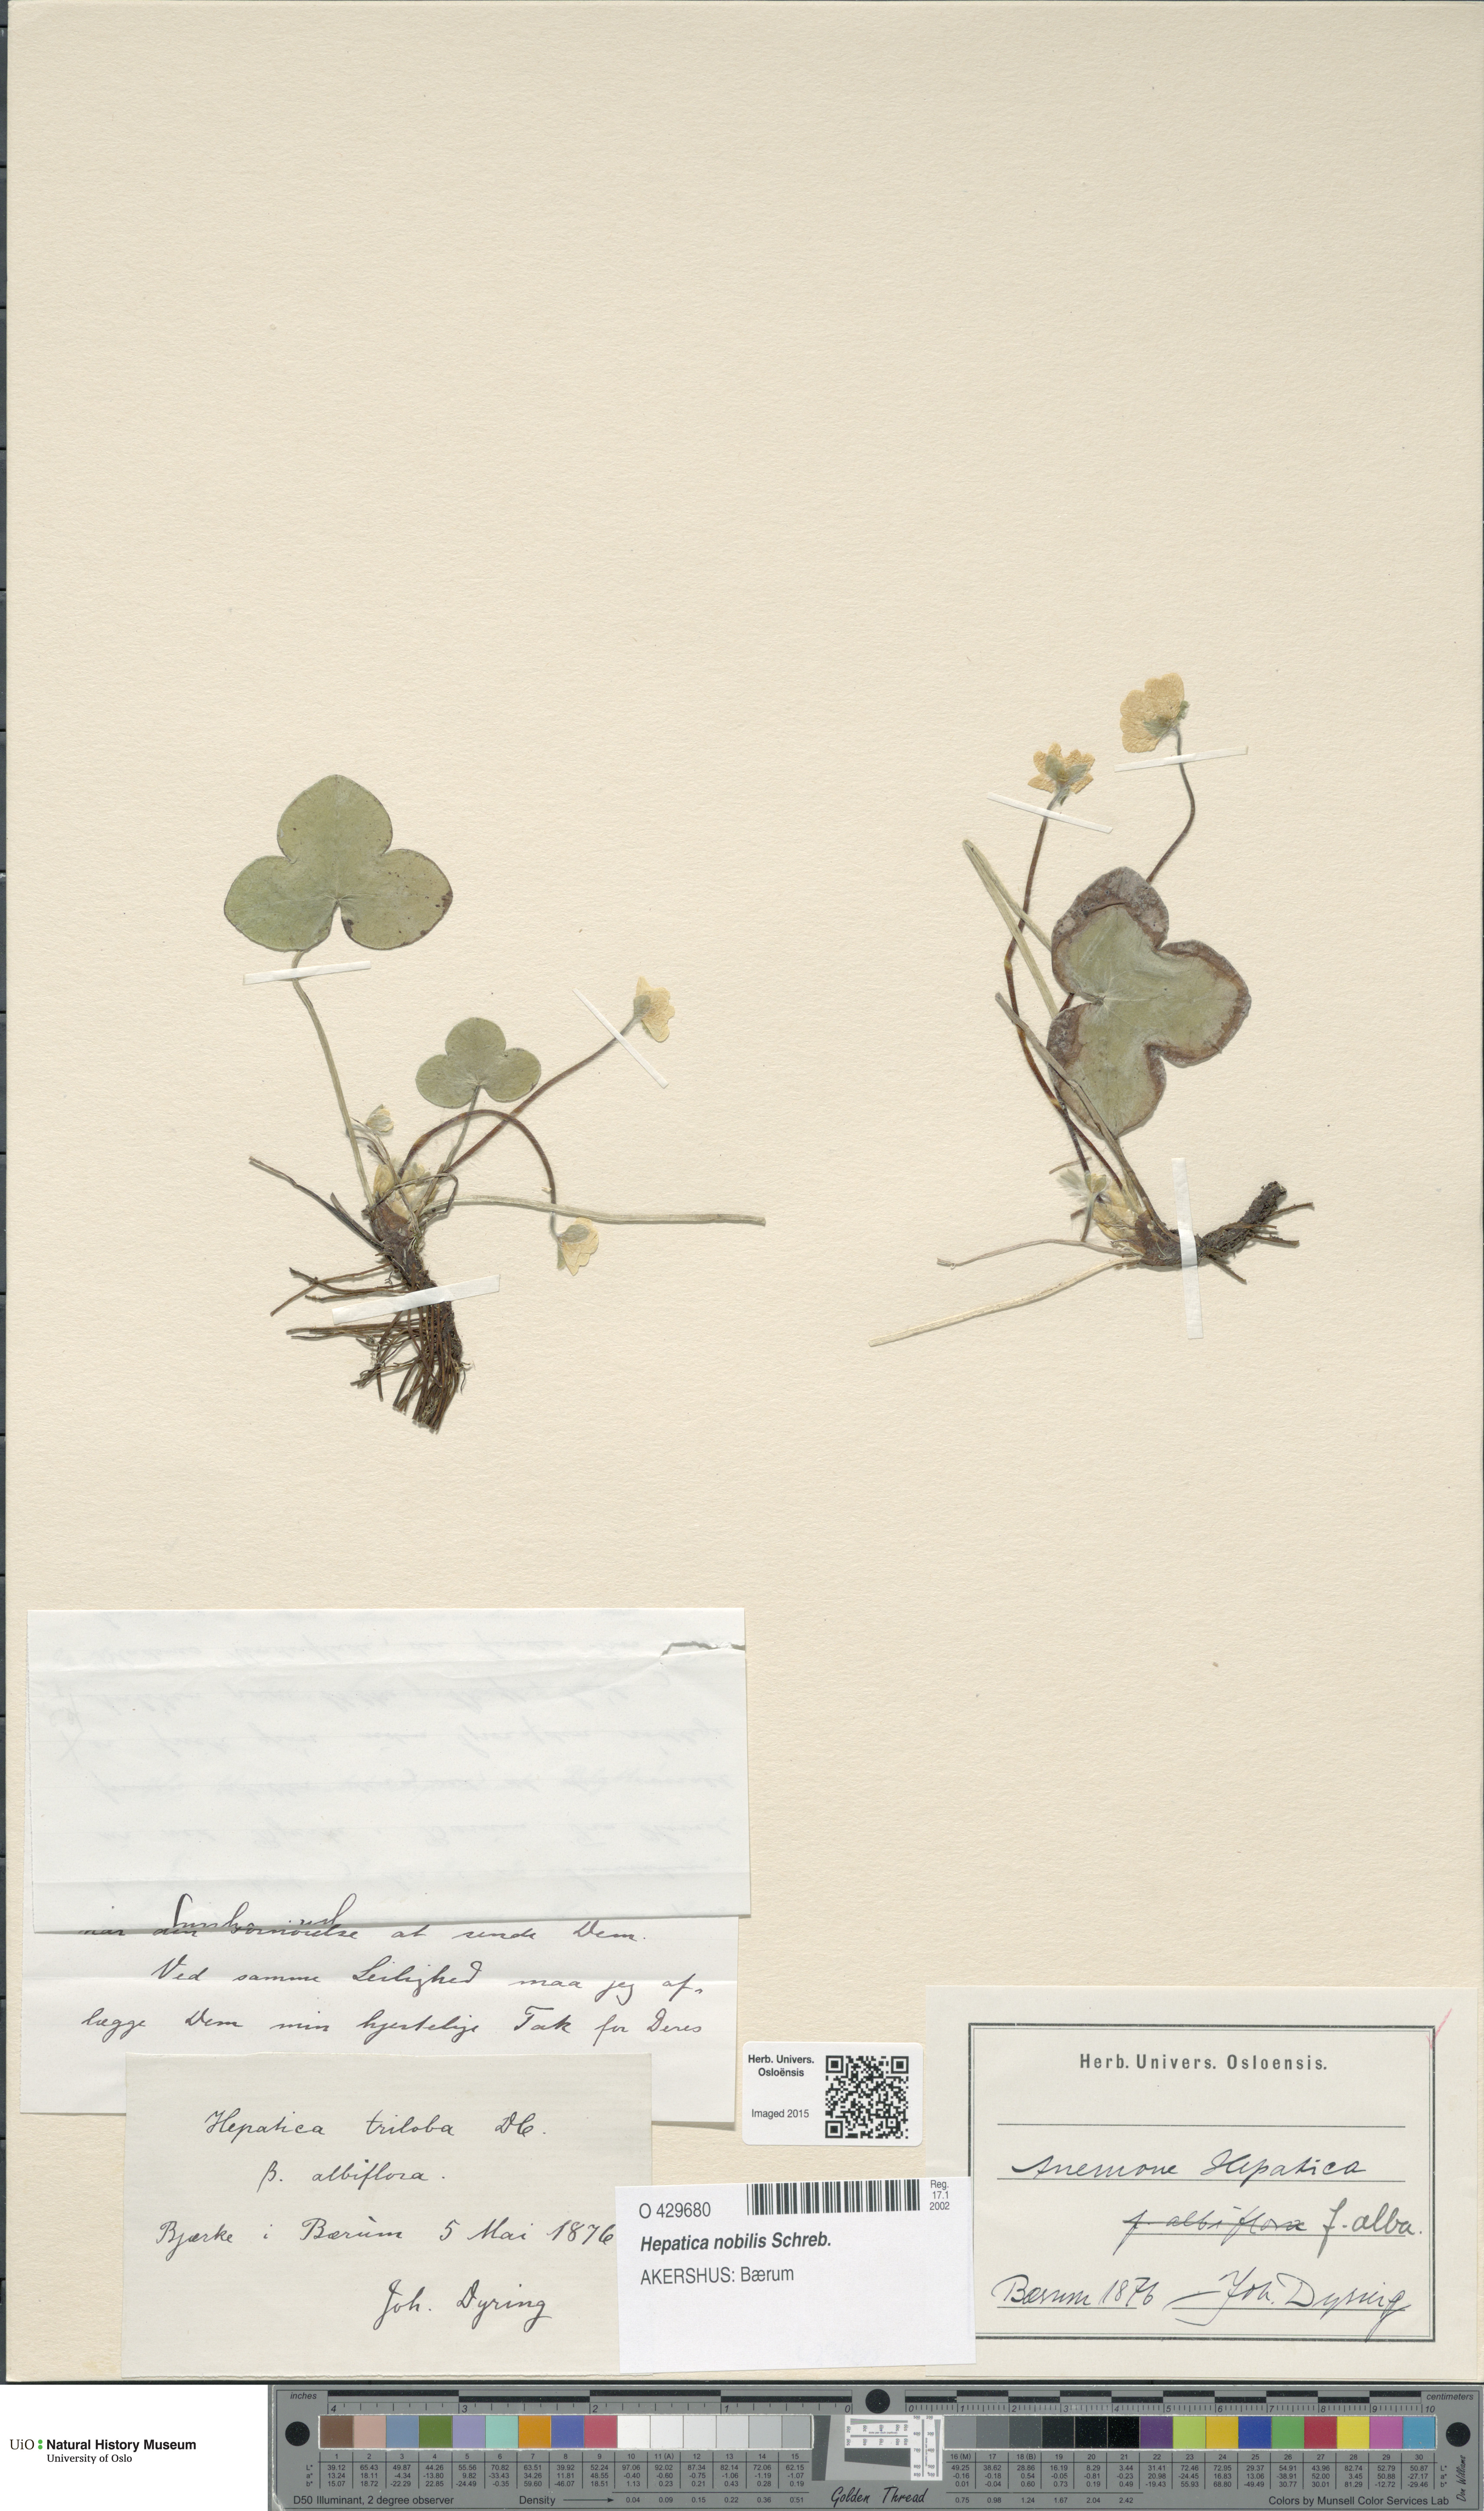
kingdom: Plantae
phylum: Tracheophyta
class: Magnoliopsida
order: Ranunculales
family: Ranunculaceae
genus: Hepatica
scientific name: Hepatica nobilis
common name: Liverleaf
